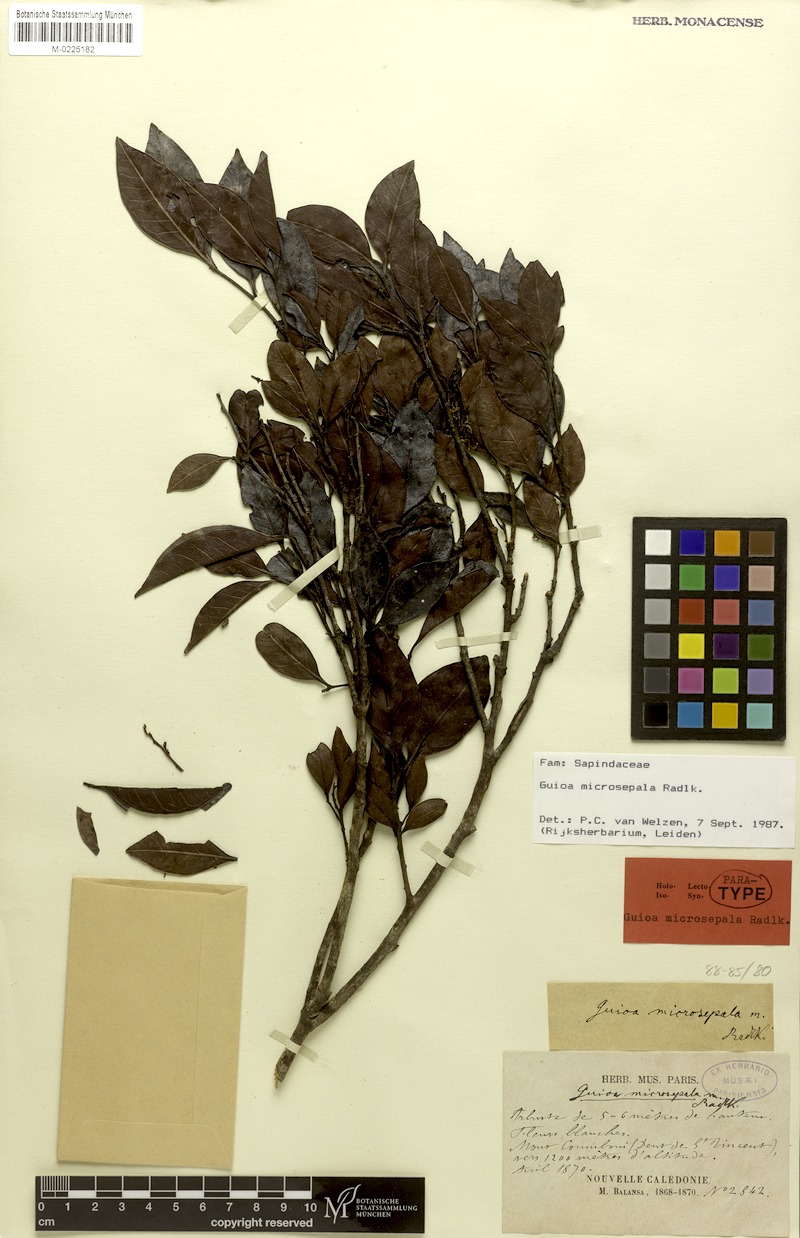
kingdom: Plantae
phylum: Tracheophyta
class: Magnoliopsida
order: Sapindales
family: Sapindaceae
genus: Guioa
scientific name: Guioa microsepala
